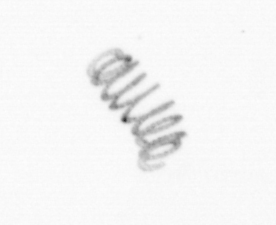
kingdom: Chromista
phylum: Ochrophyta
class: Bacillariophyceae
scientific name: Bacillariophyceae
